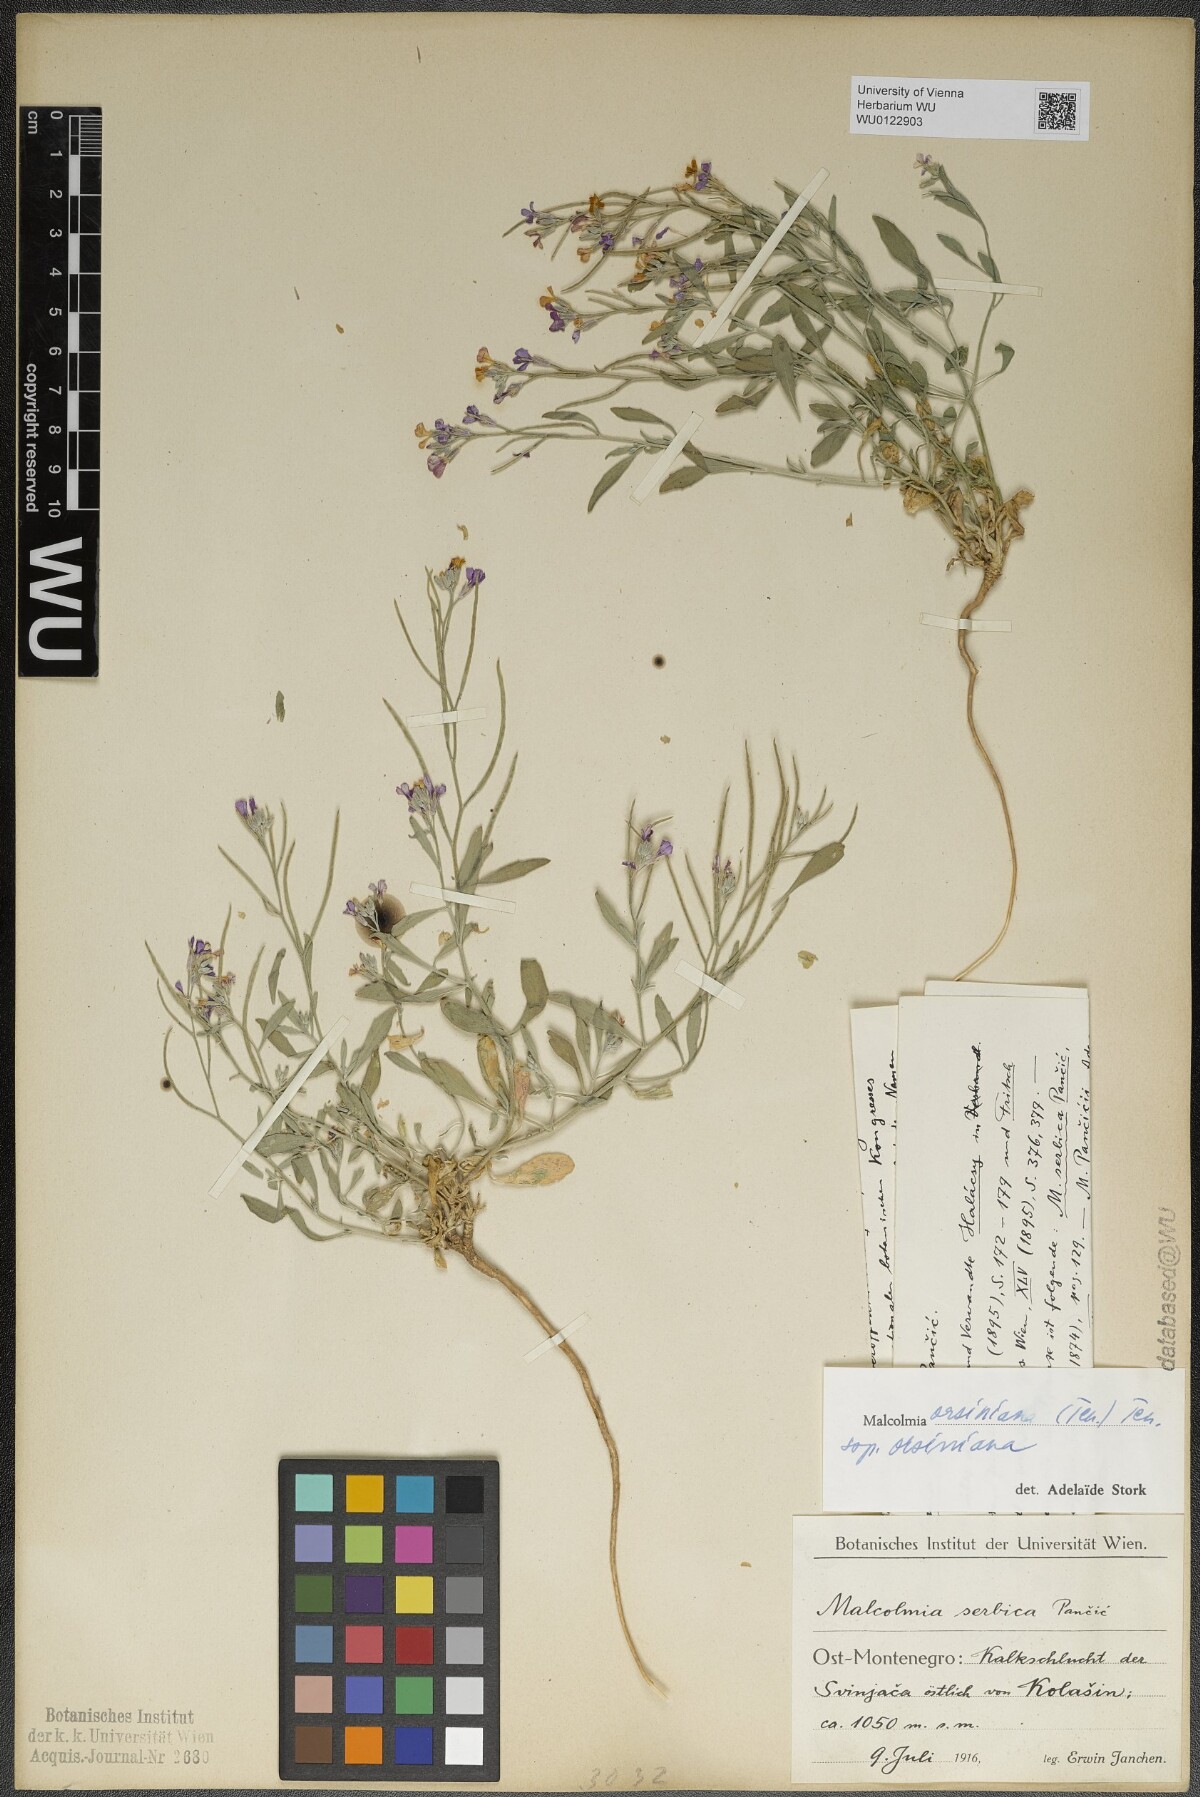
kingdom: Plantae
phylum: Tracheophyta
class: Magnoliopsida
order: Brassicales
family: Brassicaceae
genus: Malcolmia
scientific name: Malcolmia orsiniana
